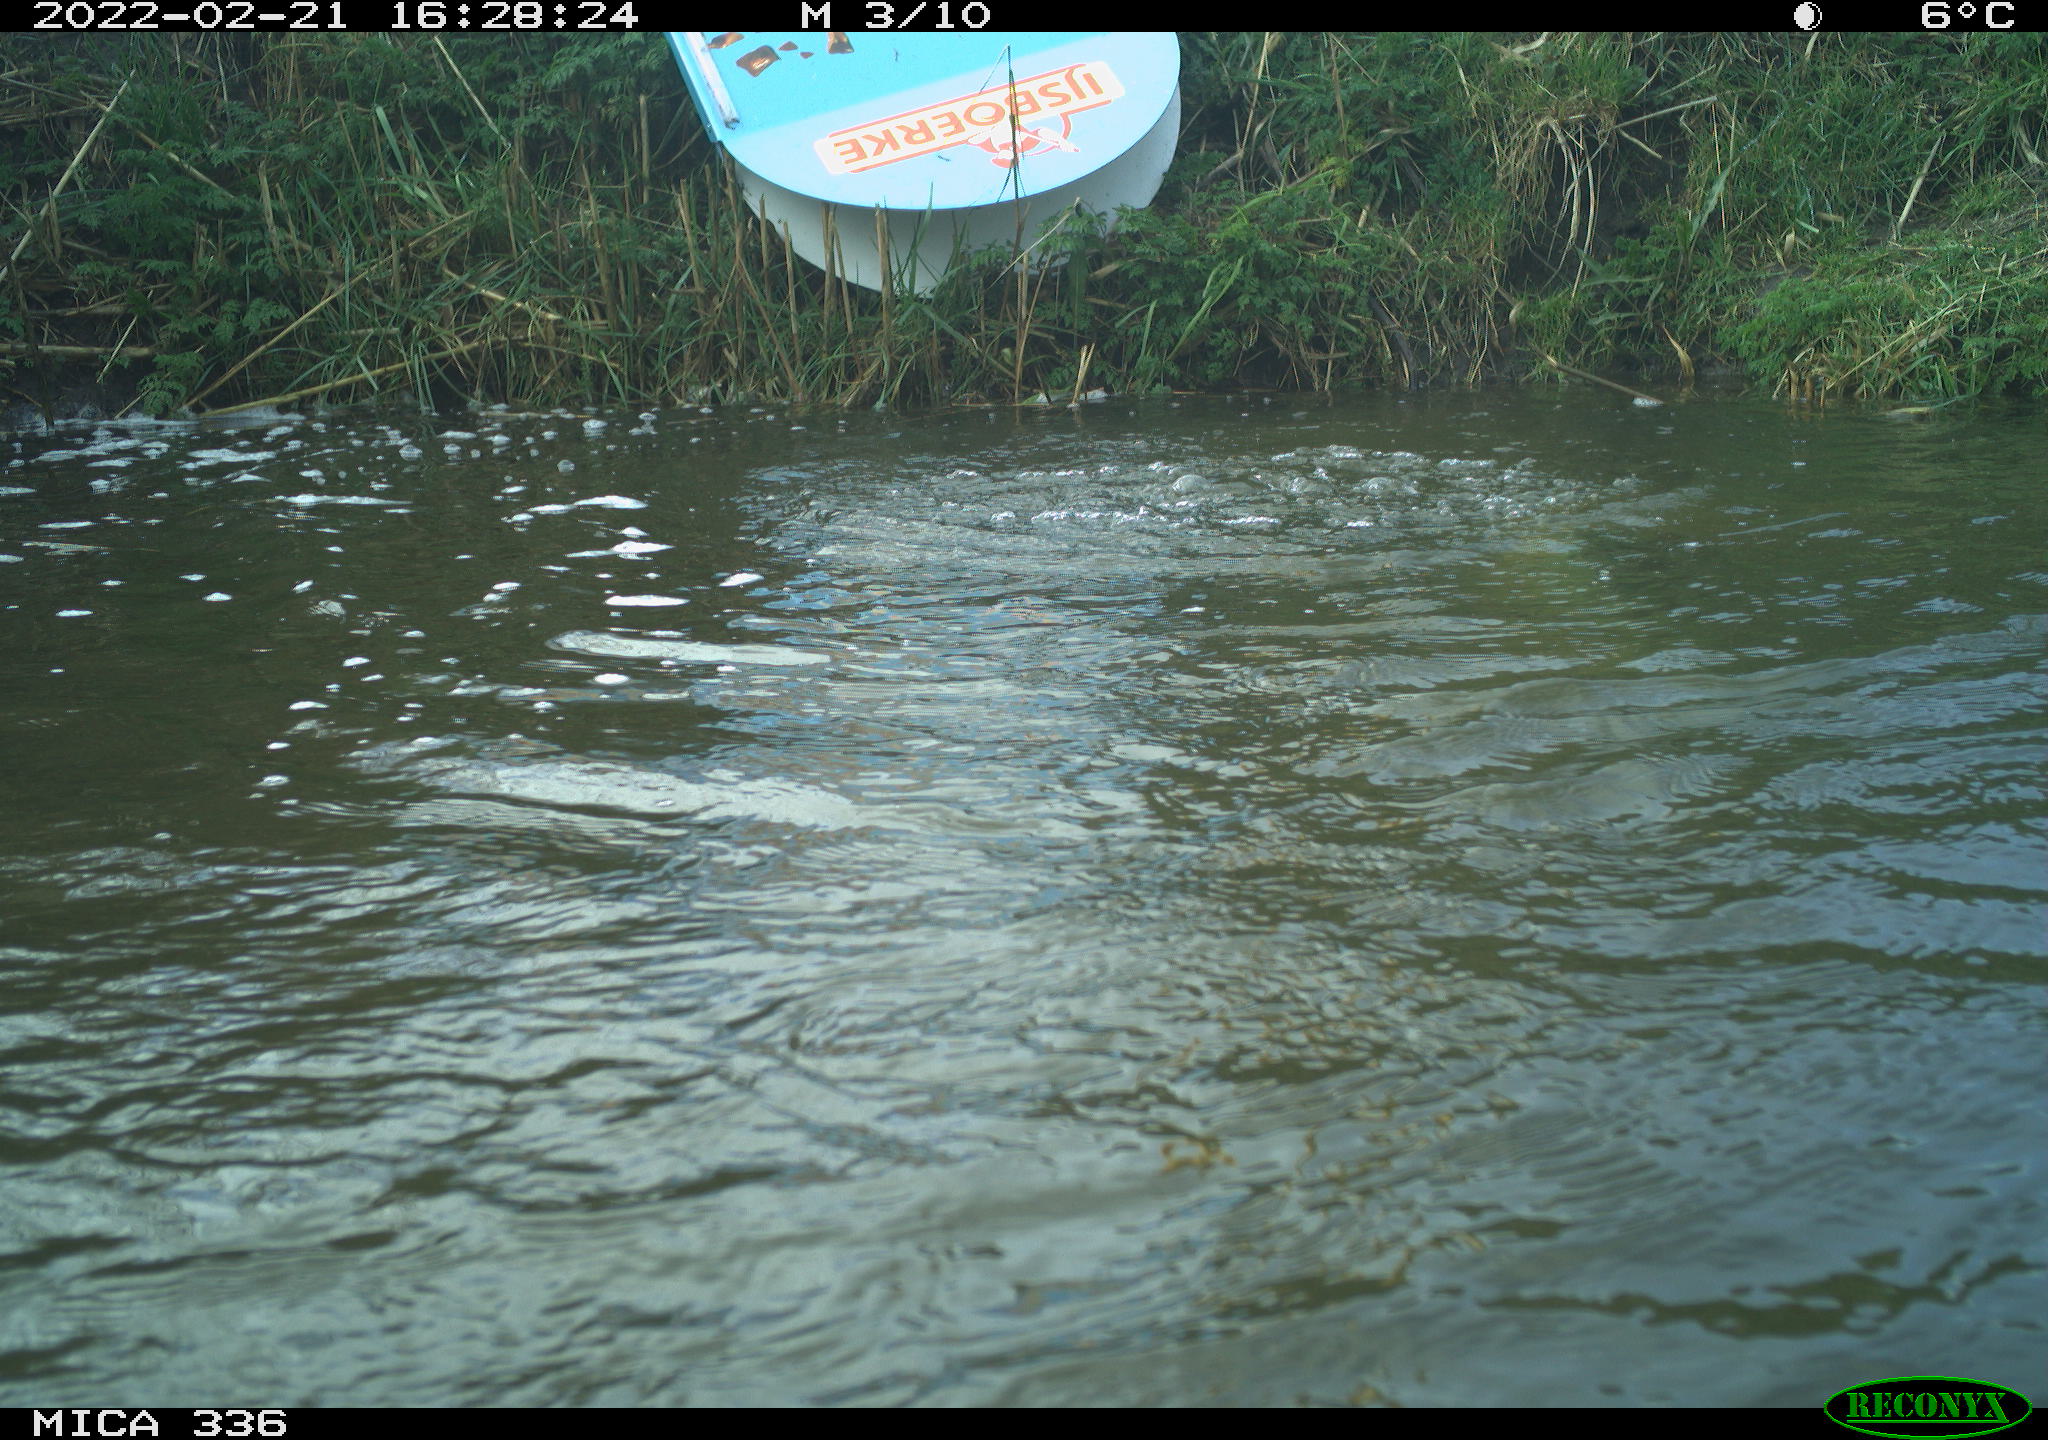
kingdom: Animalia
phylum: Chordata
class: Aves
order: Podicipediformes
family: Podicipedidae
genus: Podiceps
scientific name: Podiceps cristatus
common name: Great crested grebe
